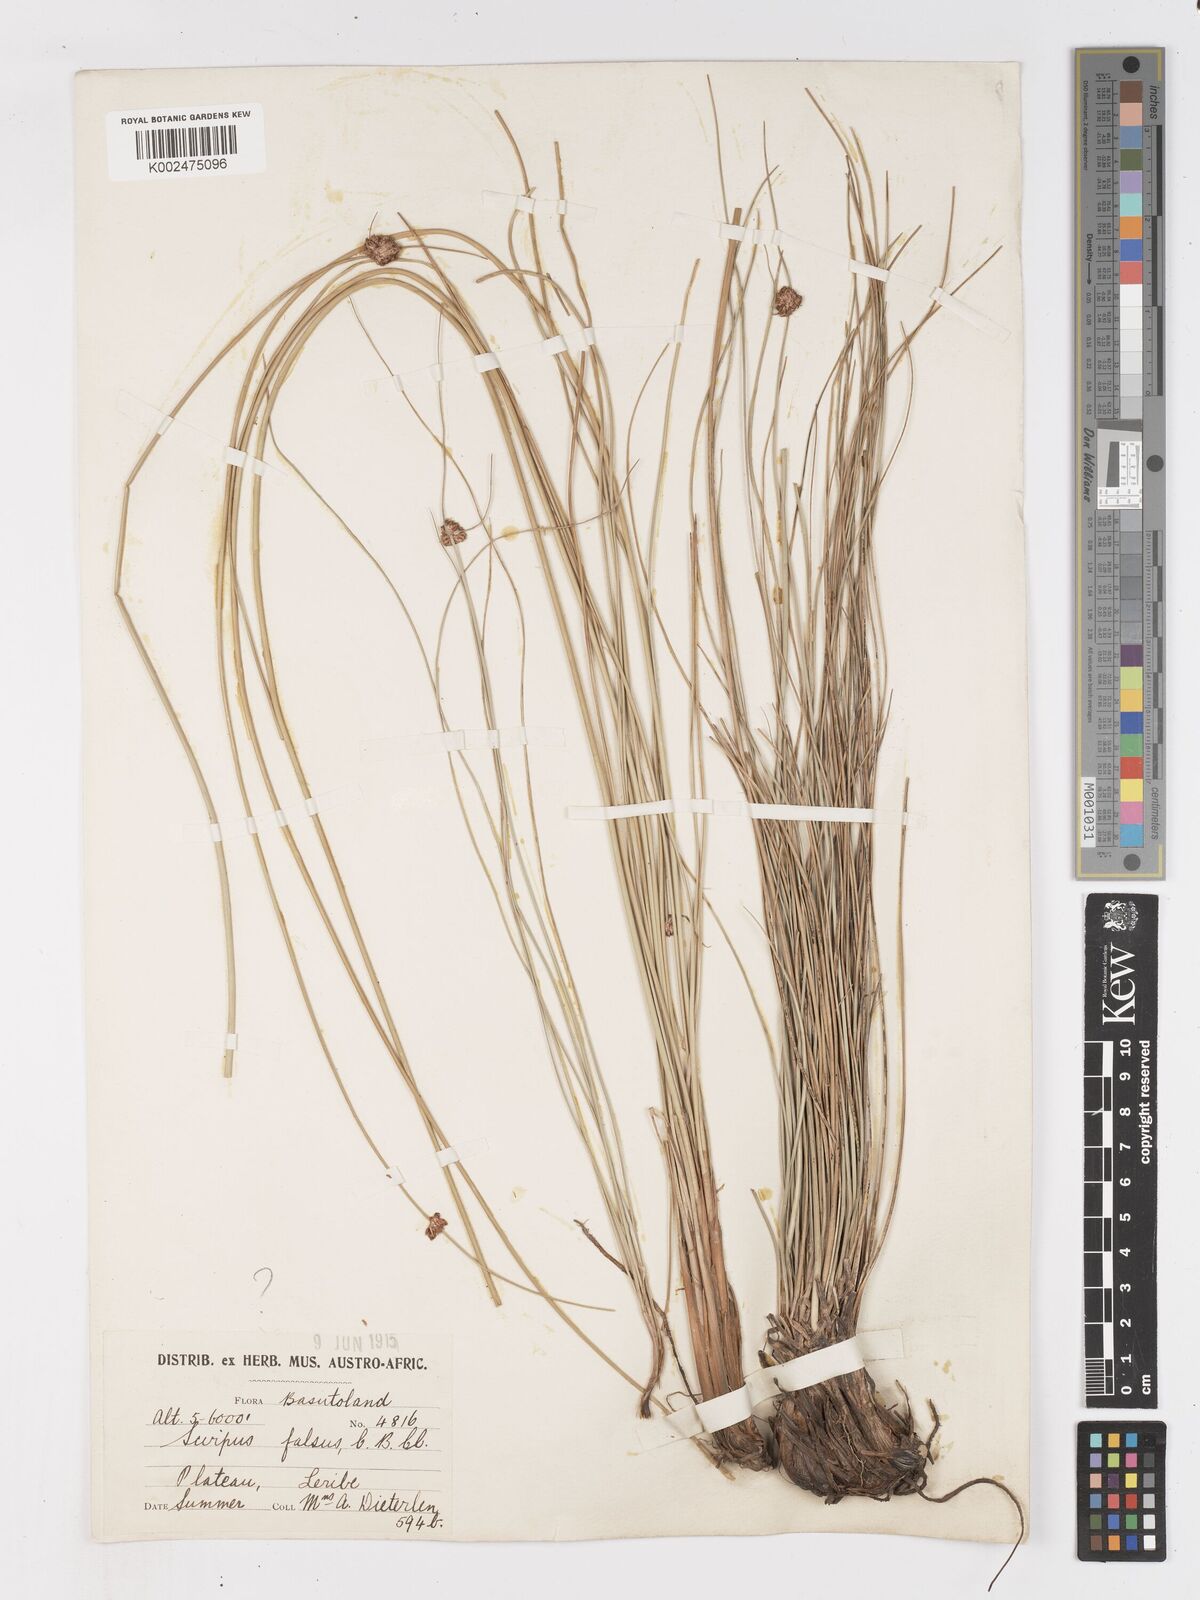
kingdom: Plantae
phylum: Tracheophyta
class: Liliopsida
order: Poales
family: Cyperaceae
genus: Ficinia
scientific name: Ficinia
